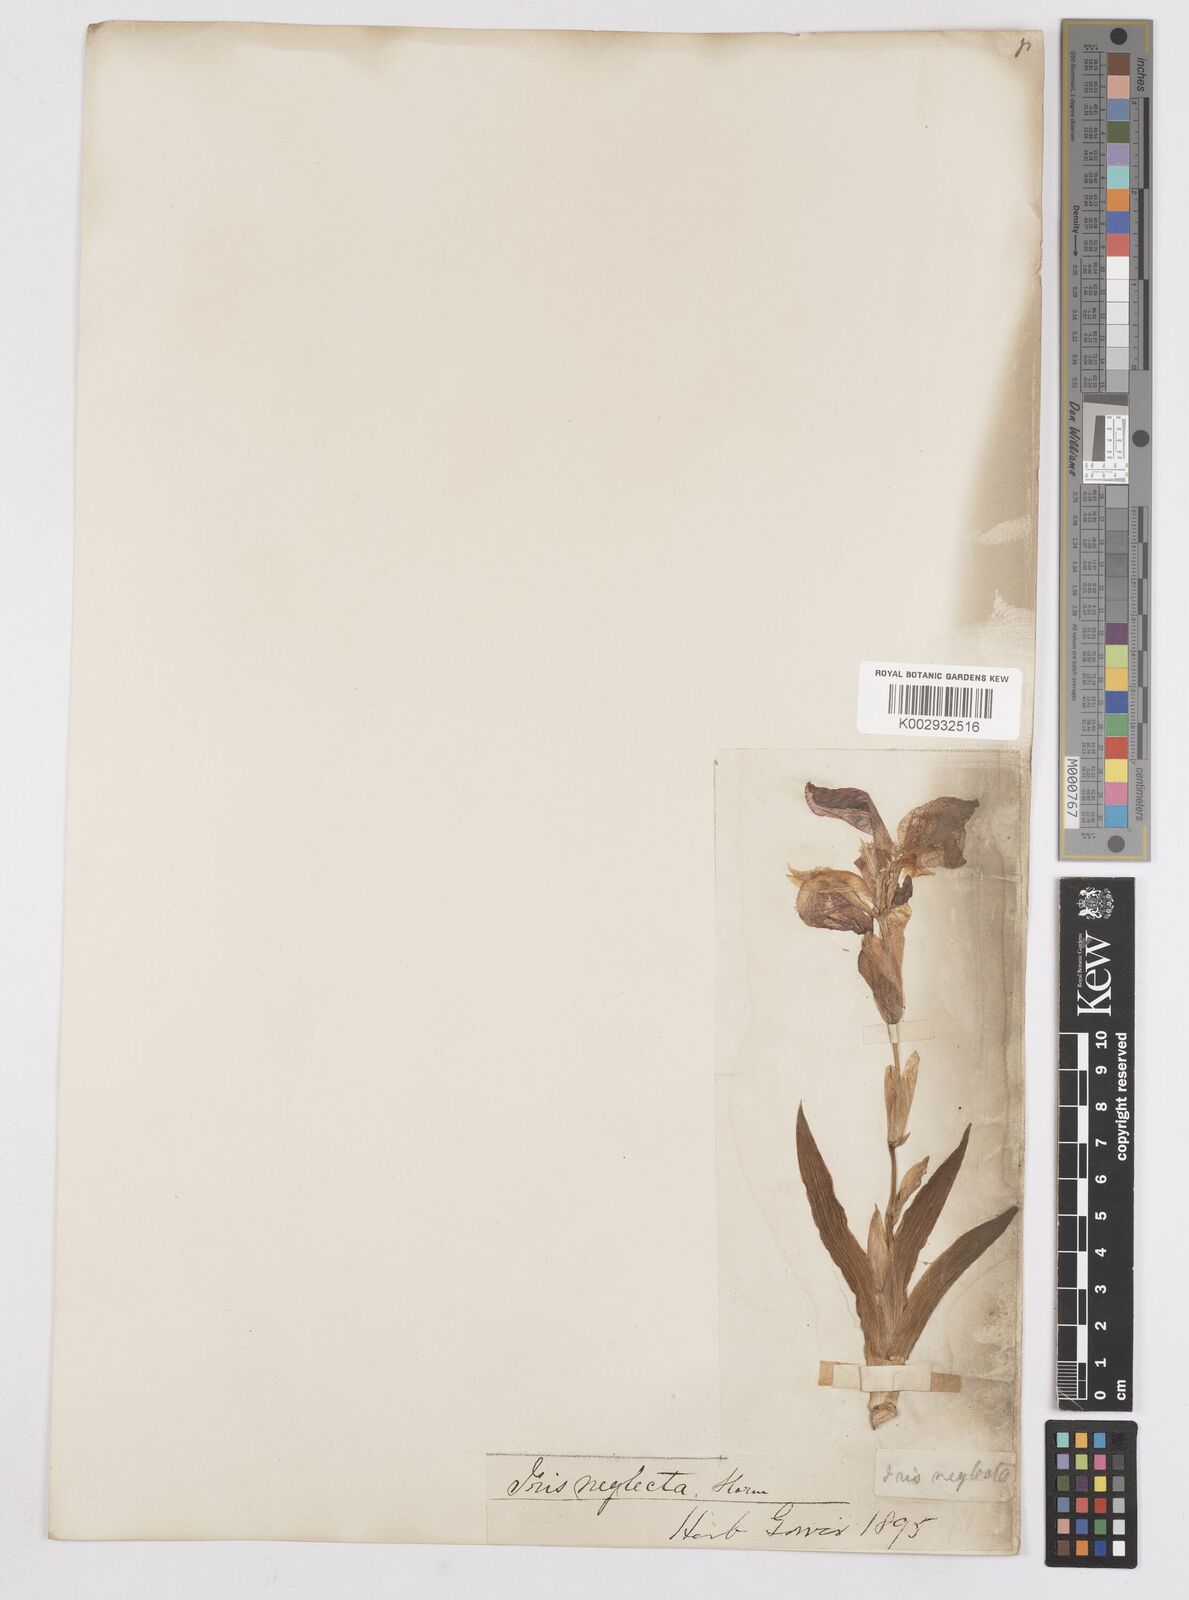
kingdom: Plantae
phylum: Tracheophyta
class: Liliopsida
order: Asparagales
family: Iridaceae
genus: Iris
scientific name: Iris
